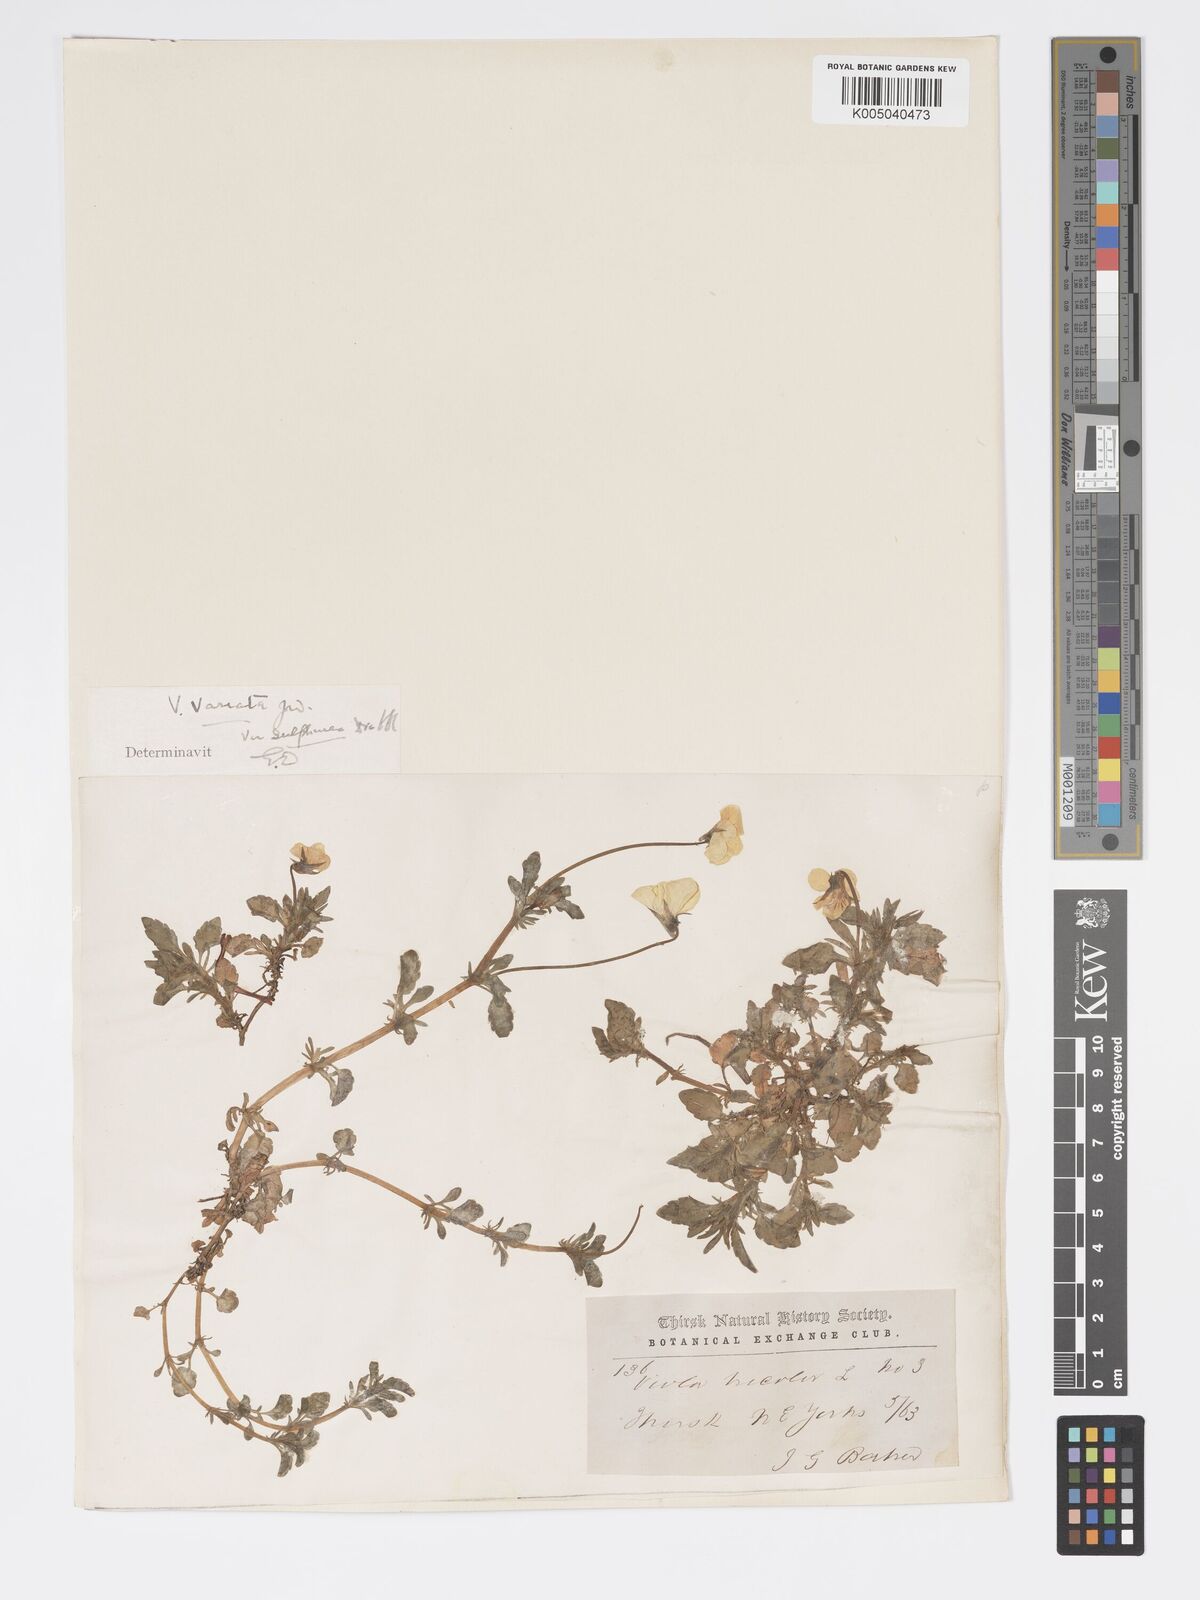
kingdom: Plantae
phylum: Tracheophyta
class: Magnoliopsida
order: Malpighiales
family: Violaceae
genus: Viola
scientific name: Viola arvensis
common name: Field pansy
